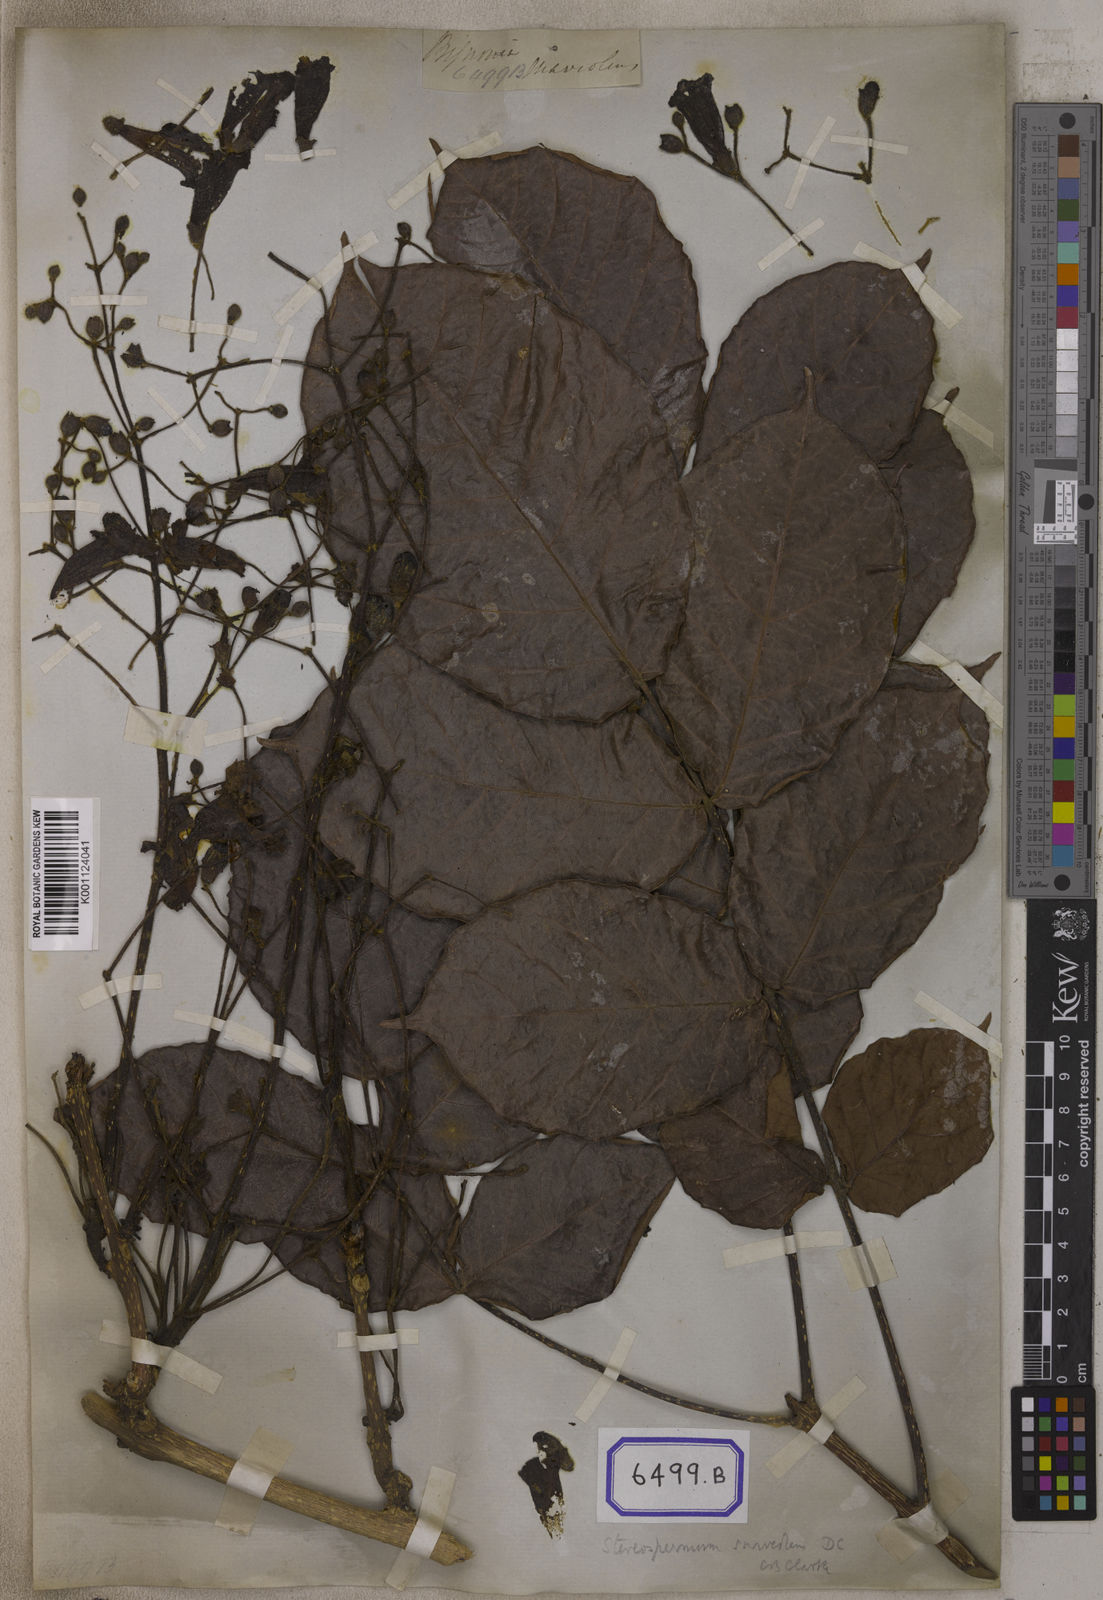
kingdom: Plantae
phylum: Tracheophyta
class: Magnoliopsida
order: Lamiales
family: Bignoniaceae
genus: Stereospermum
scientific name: Stereospermum chelonoides
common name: Fragrant padritree
